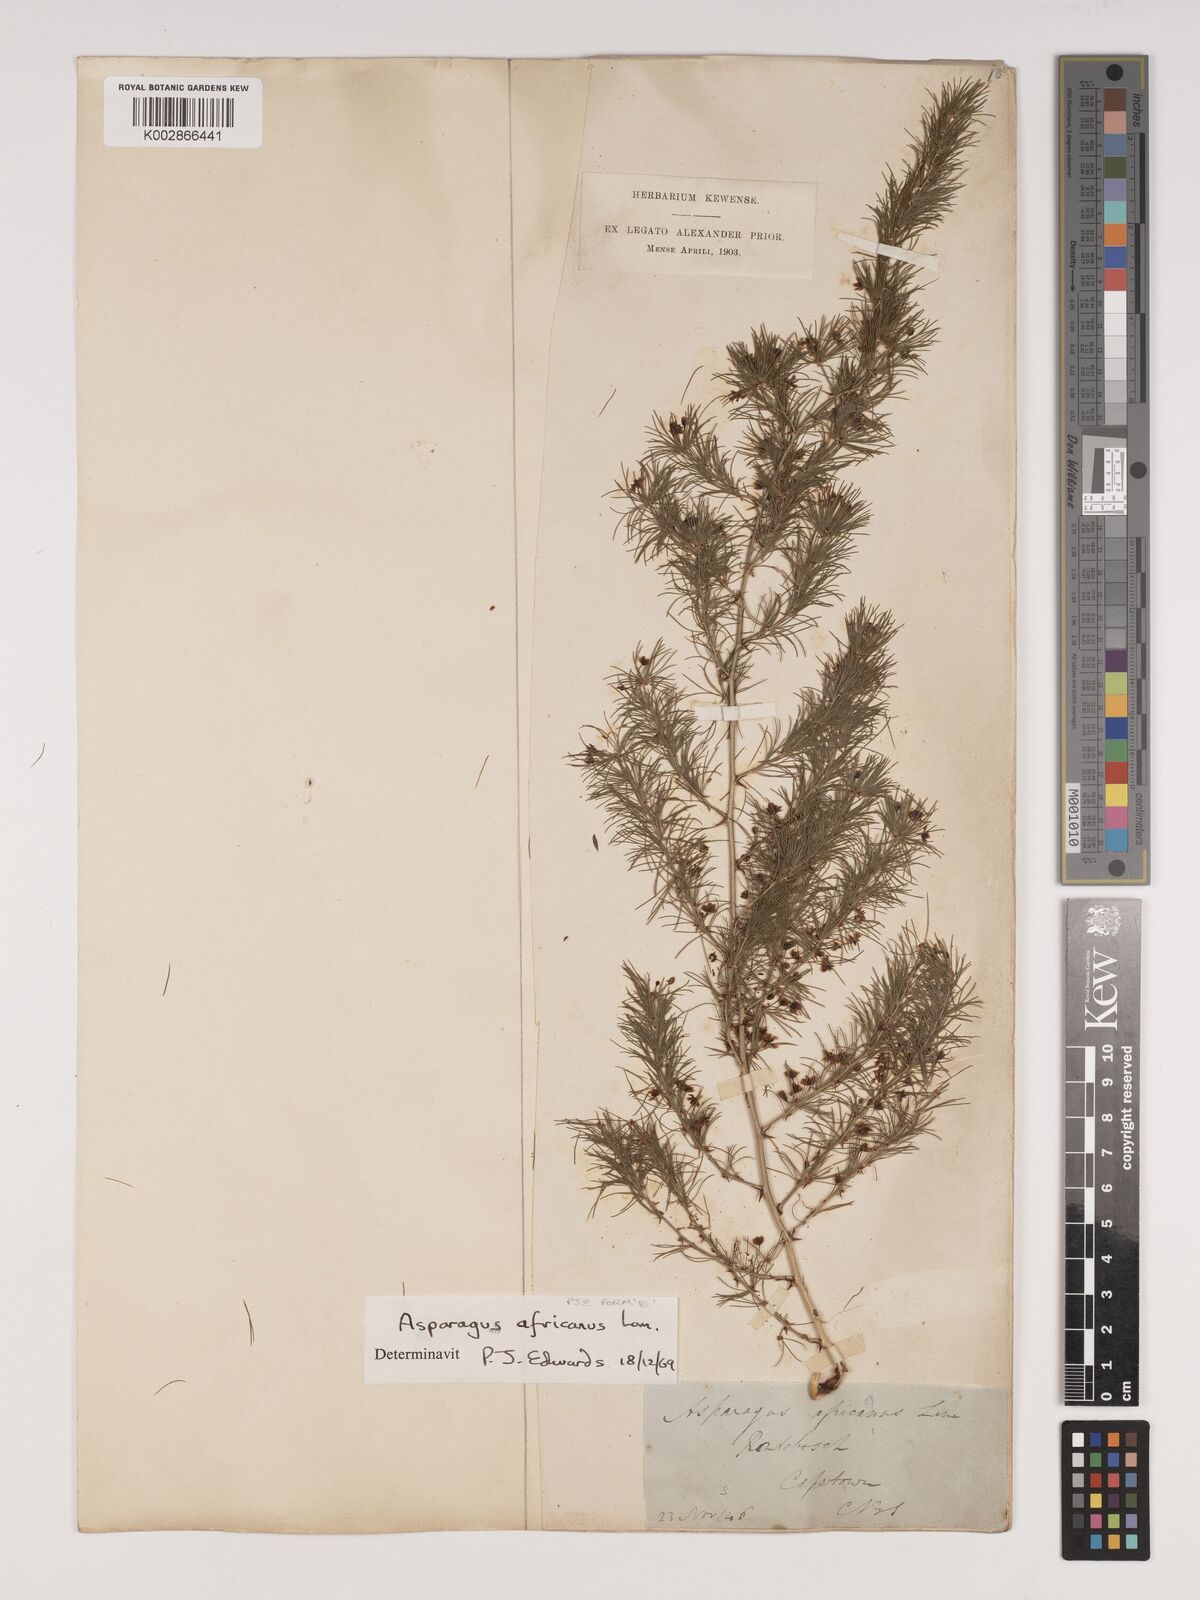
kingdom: Plantae
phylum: Tracheophyta
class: Liliopsida
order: Asparagales
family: Asparagaceae
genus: Asparagus
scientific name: Asparagus africanus
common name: Asparagus-fern
